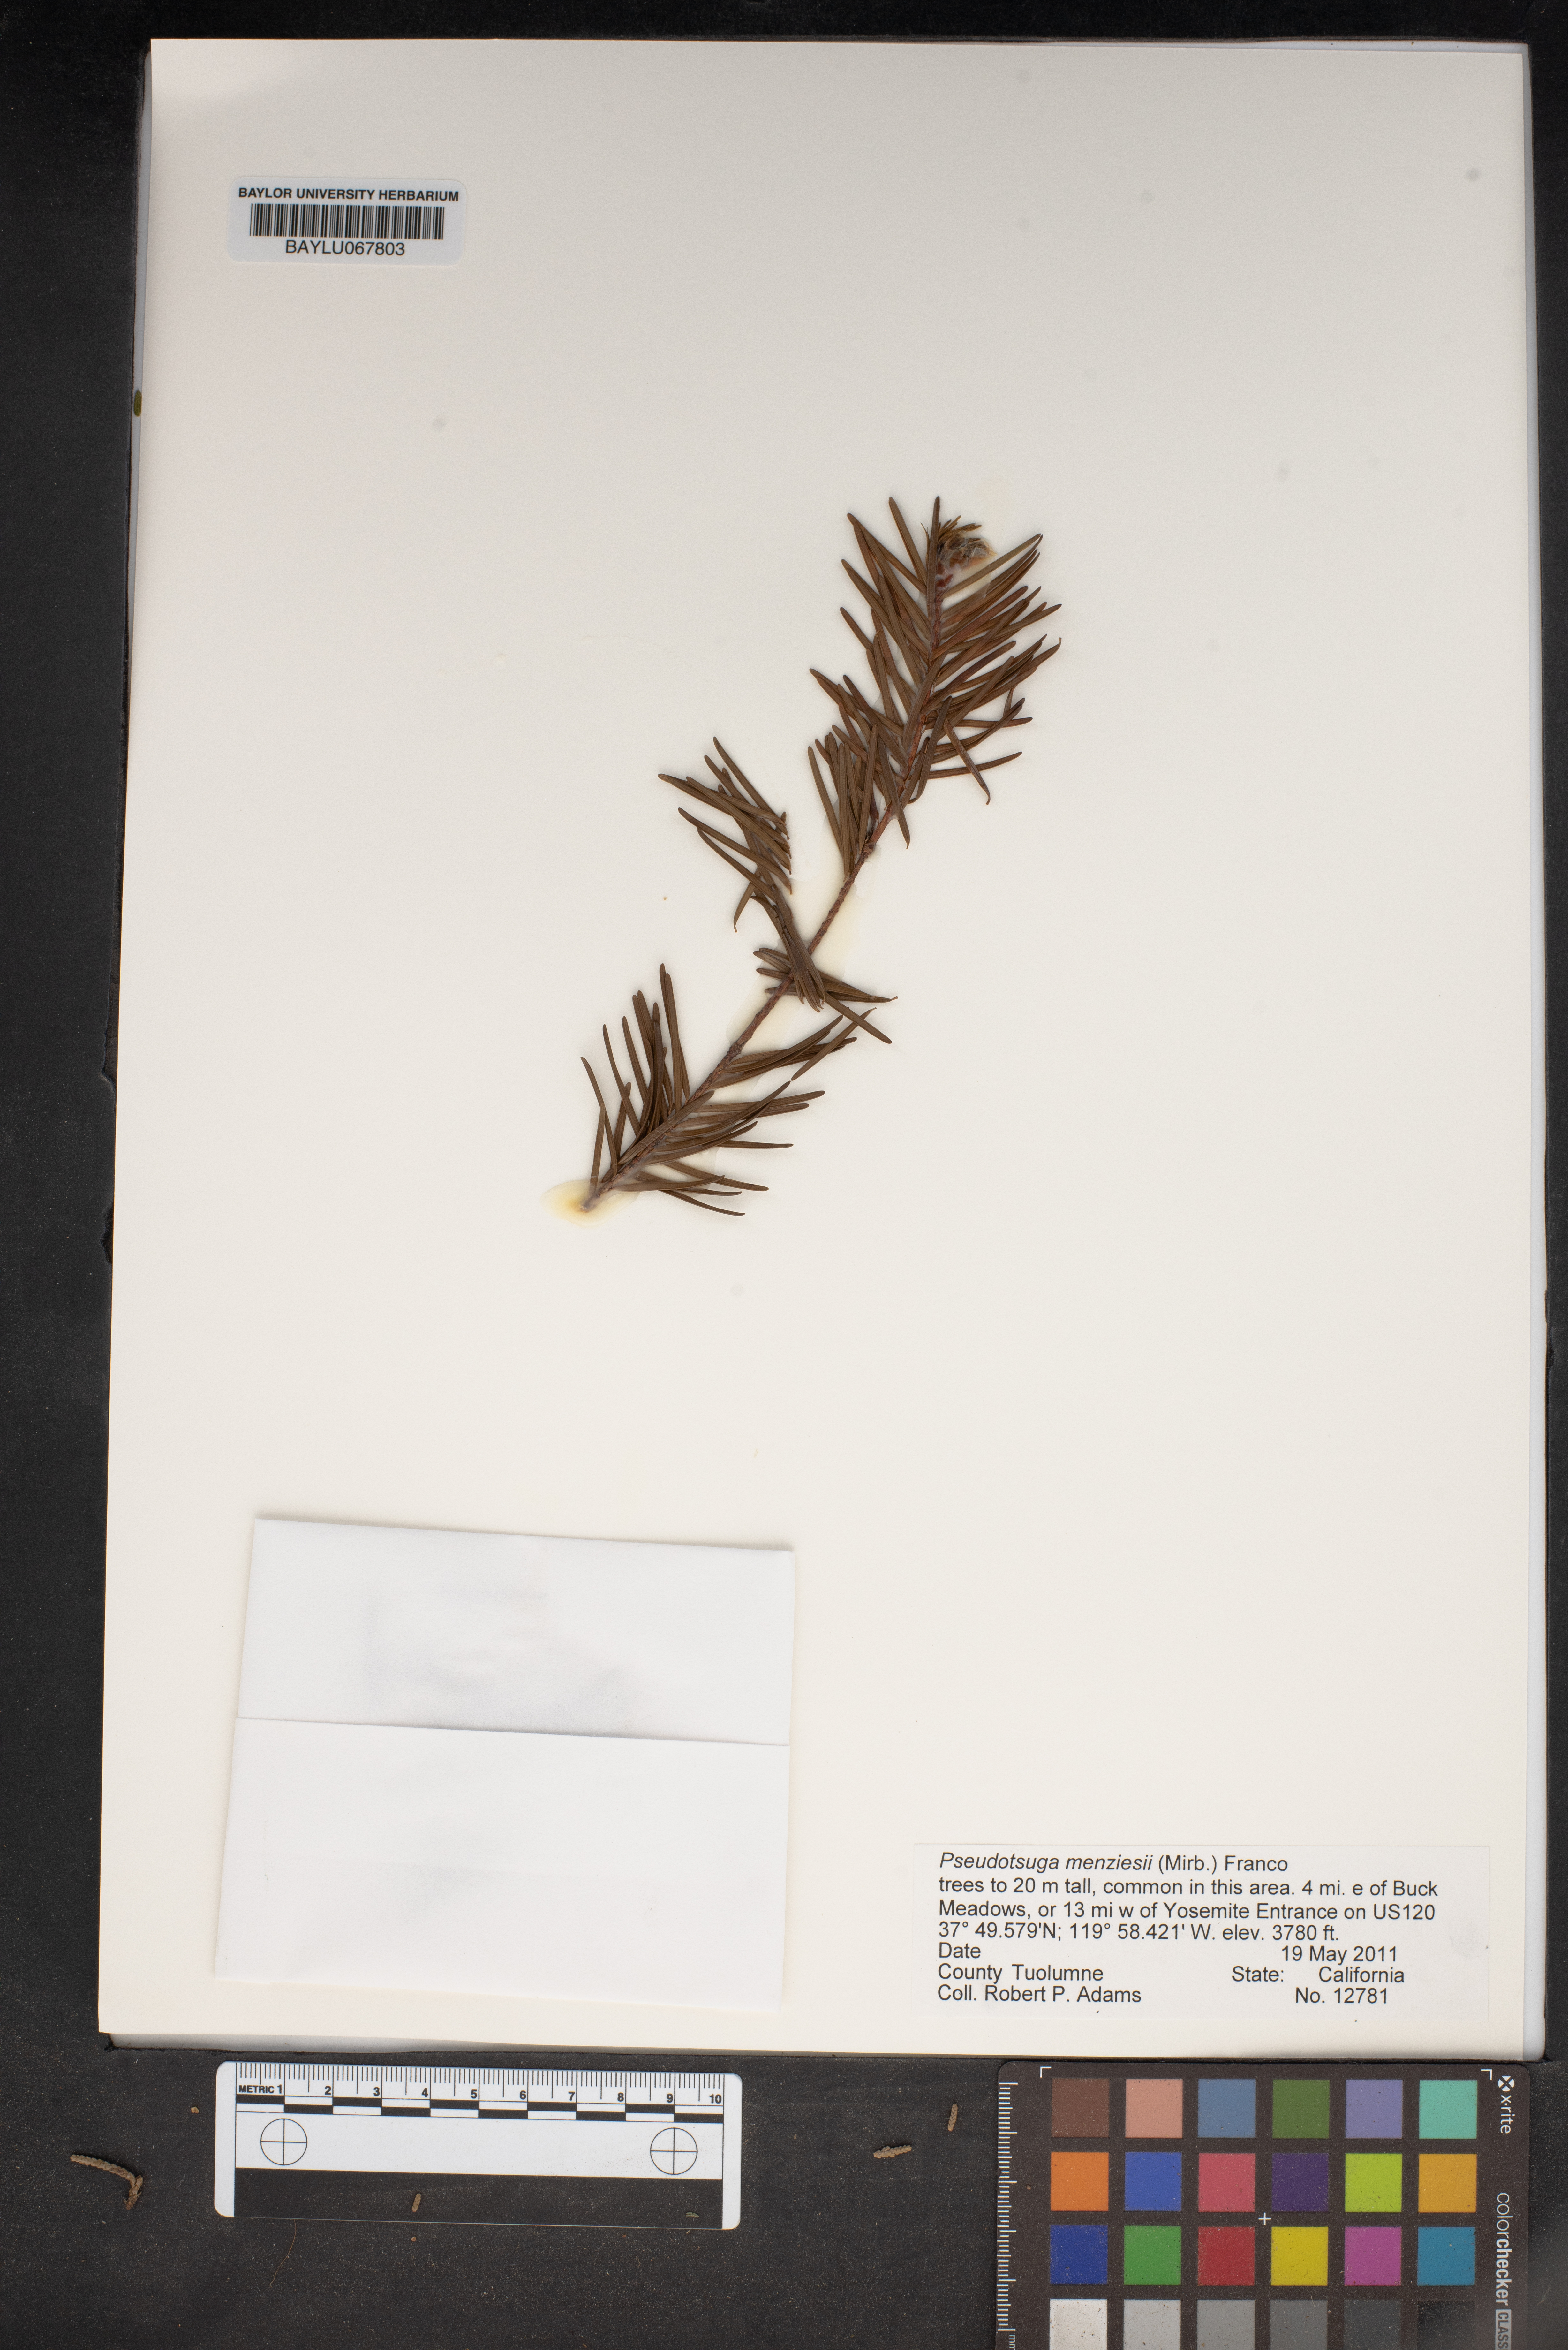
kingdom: Plantae
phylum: Tracheophyta
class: Pinopsida
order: Pinales
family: Pinaceae
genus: Pseudotsuga
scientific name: Pseudotsuga menziesii
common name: Douglas fir
